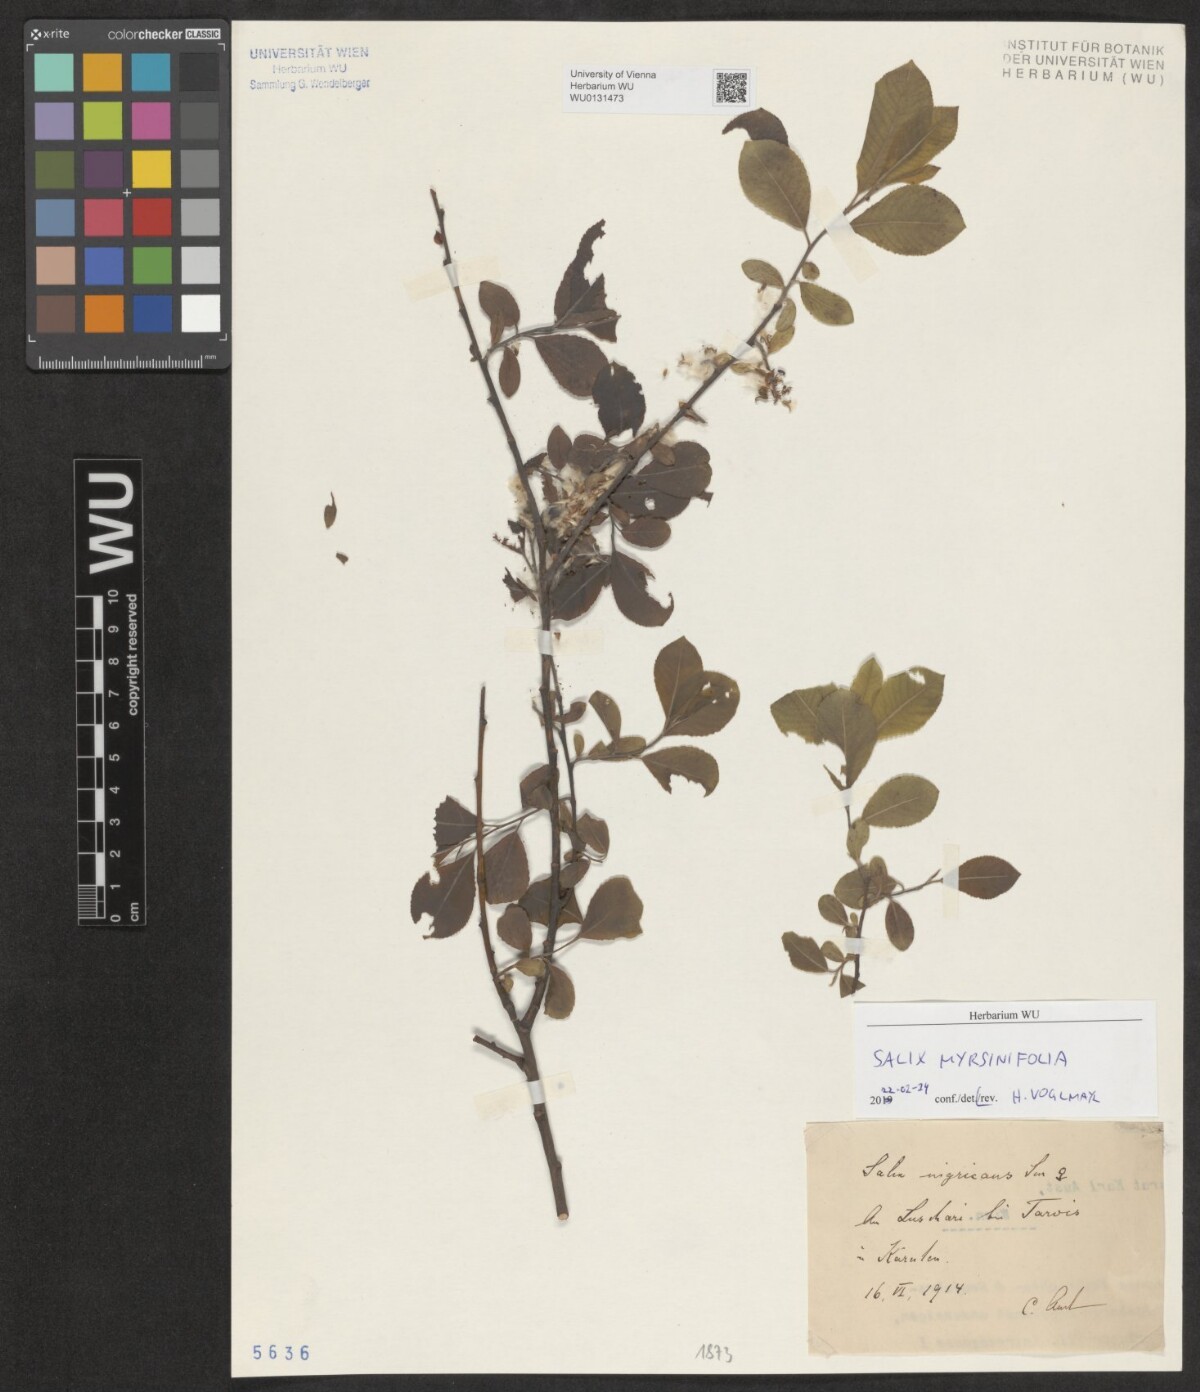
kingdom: Plantae
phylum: Tracheophyta
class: Magnoliopsida
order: Malpighiales
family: Salicaceae
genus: Salix
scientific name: Salix myrsinifolia
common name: Dark-leaved willow
